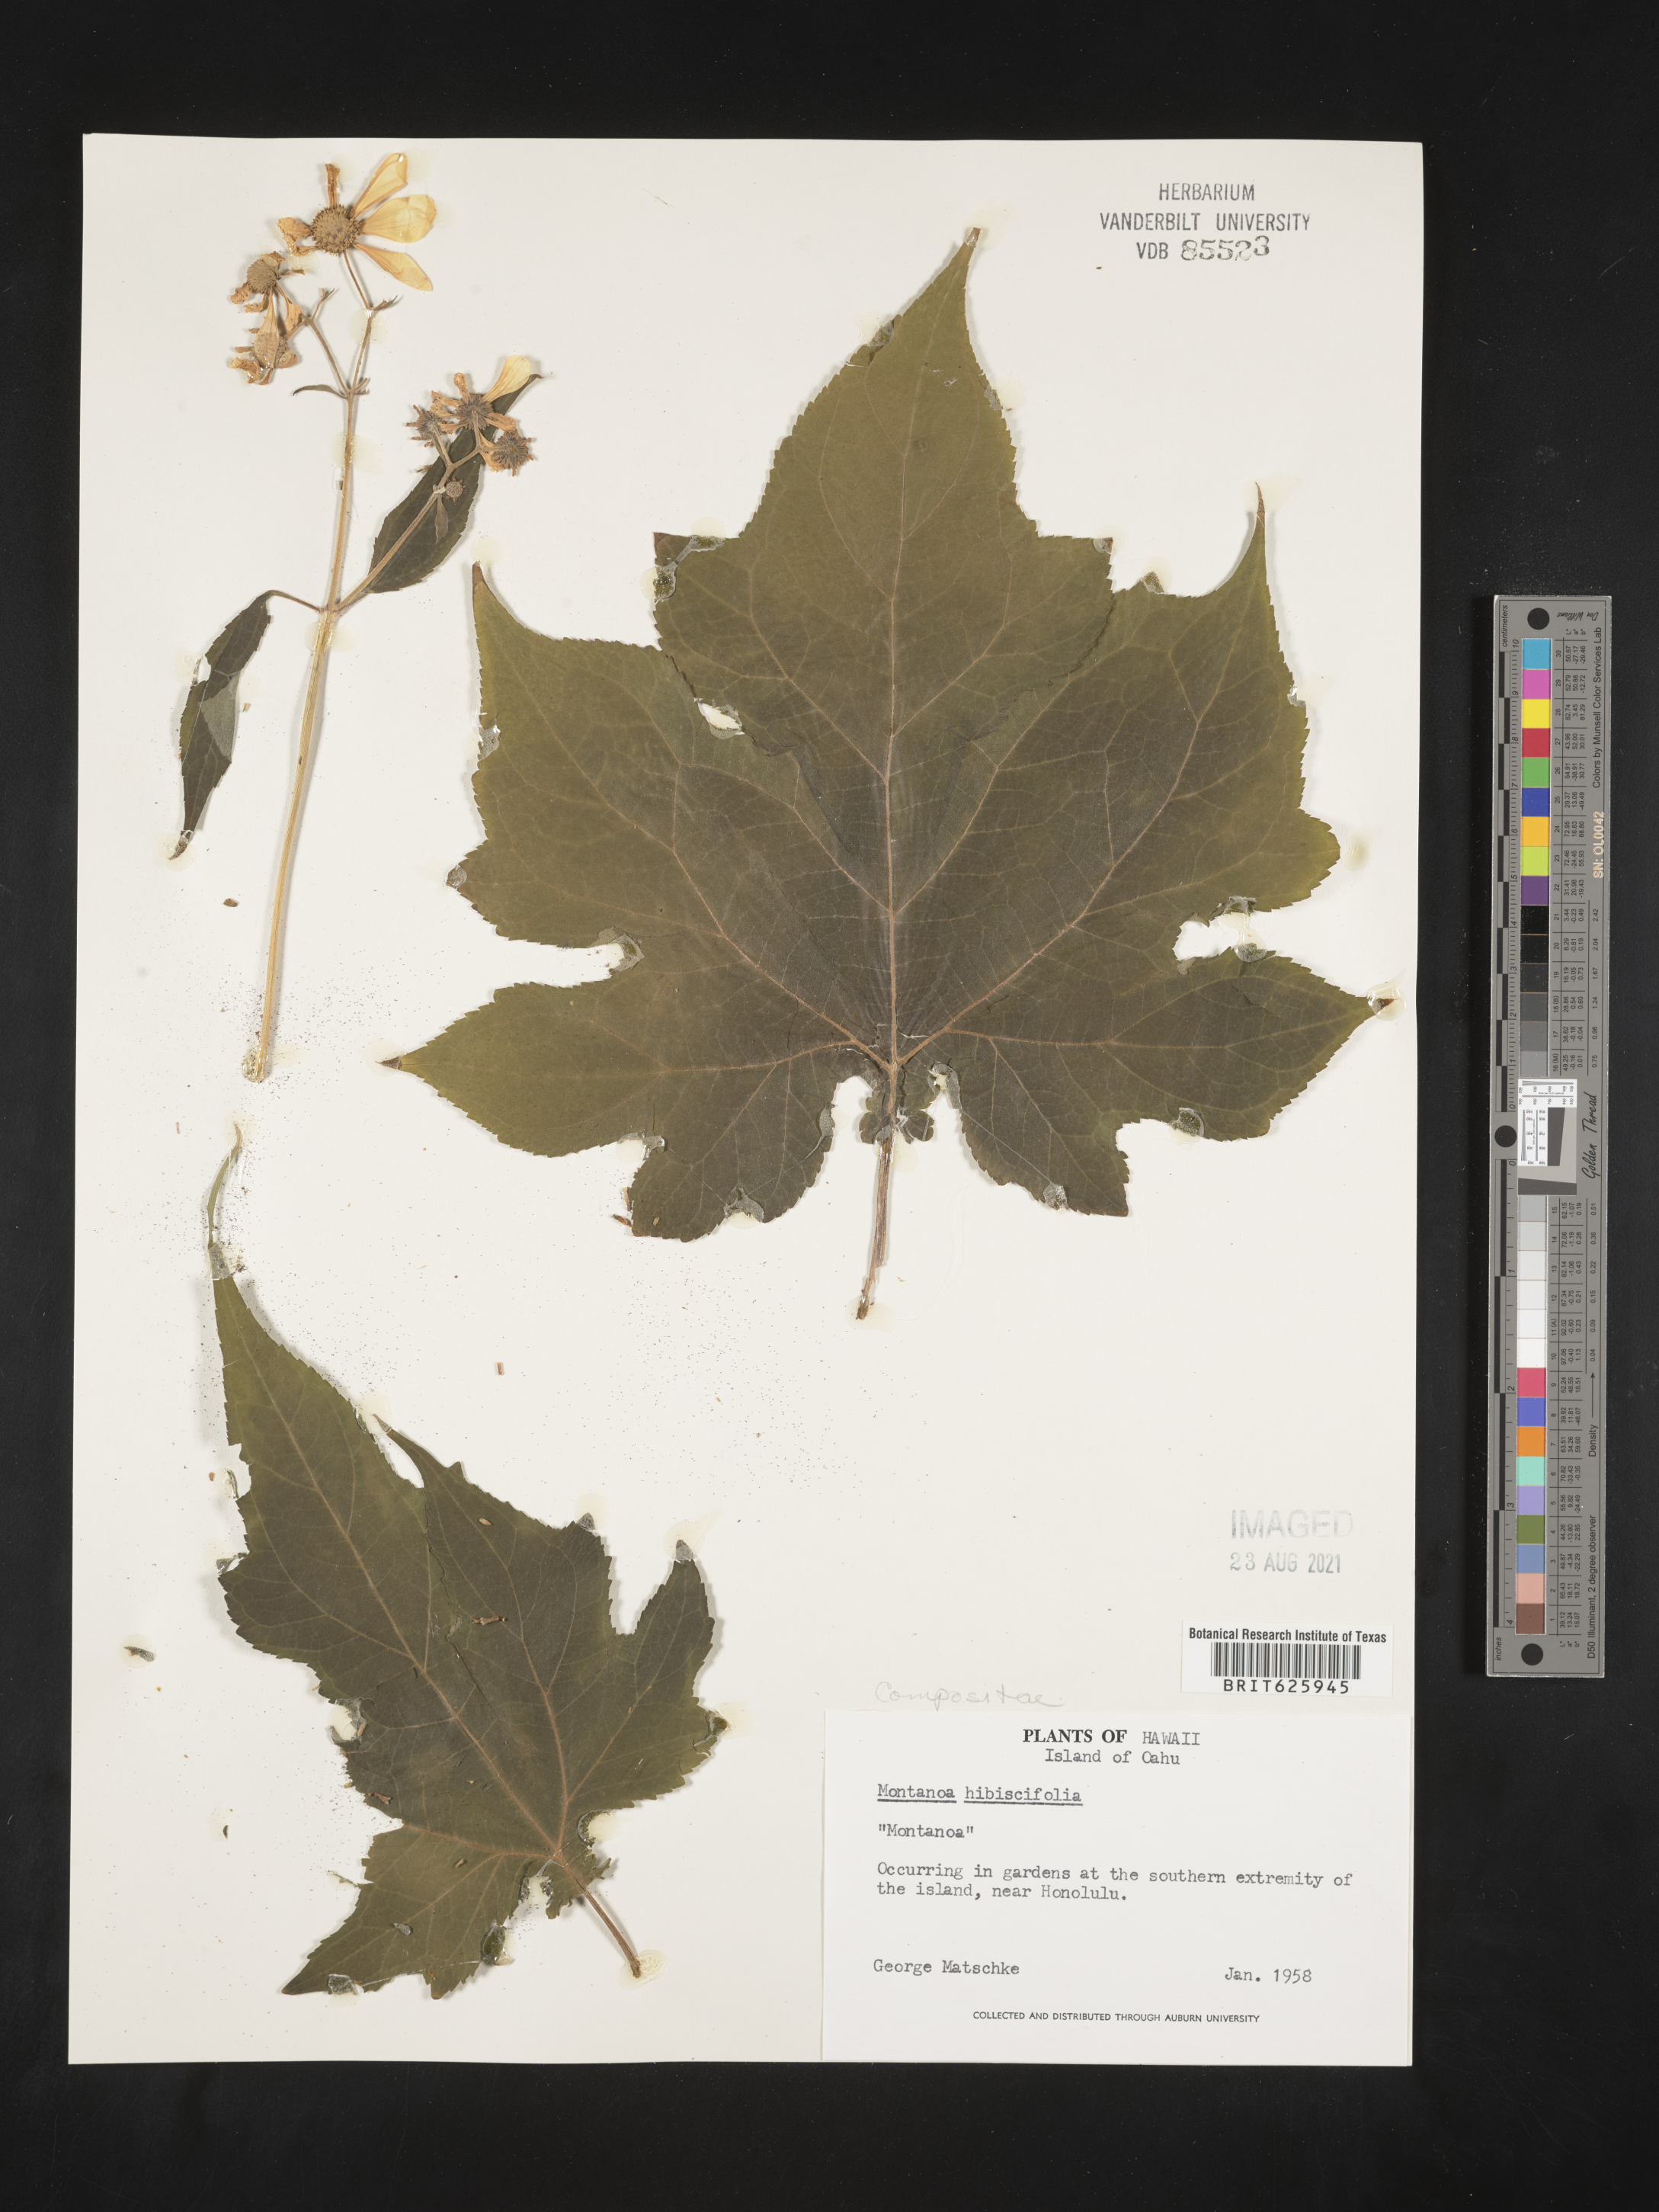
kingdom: Plantae
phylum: Tracheophyta
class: Magnoliopsida
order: Asterales
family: Asteraceae
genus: Montanoa
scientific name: Montanoa hibiscifolia
